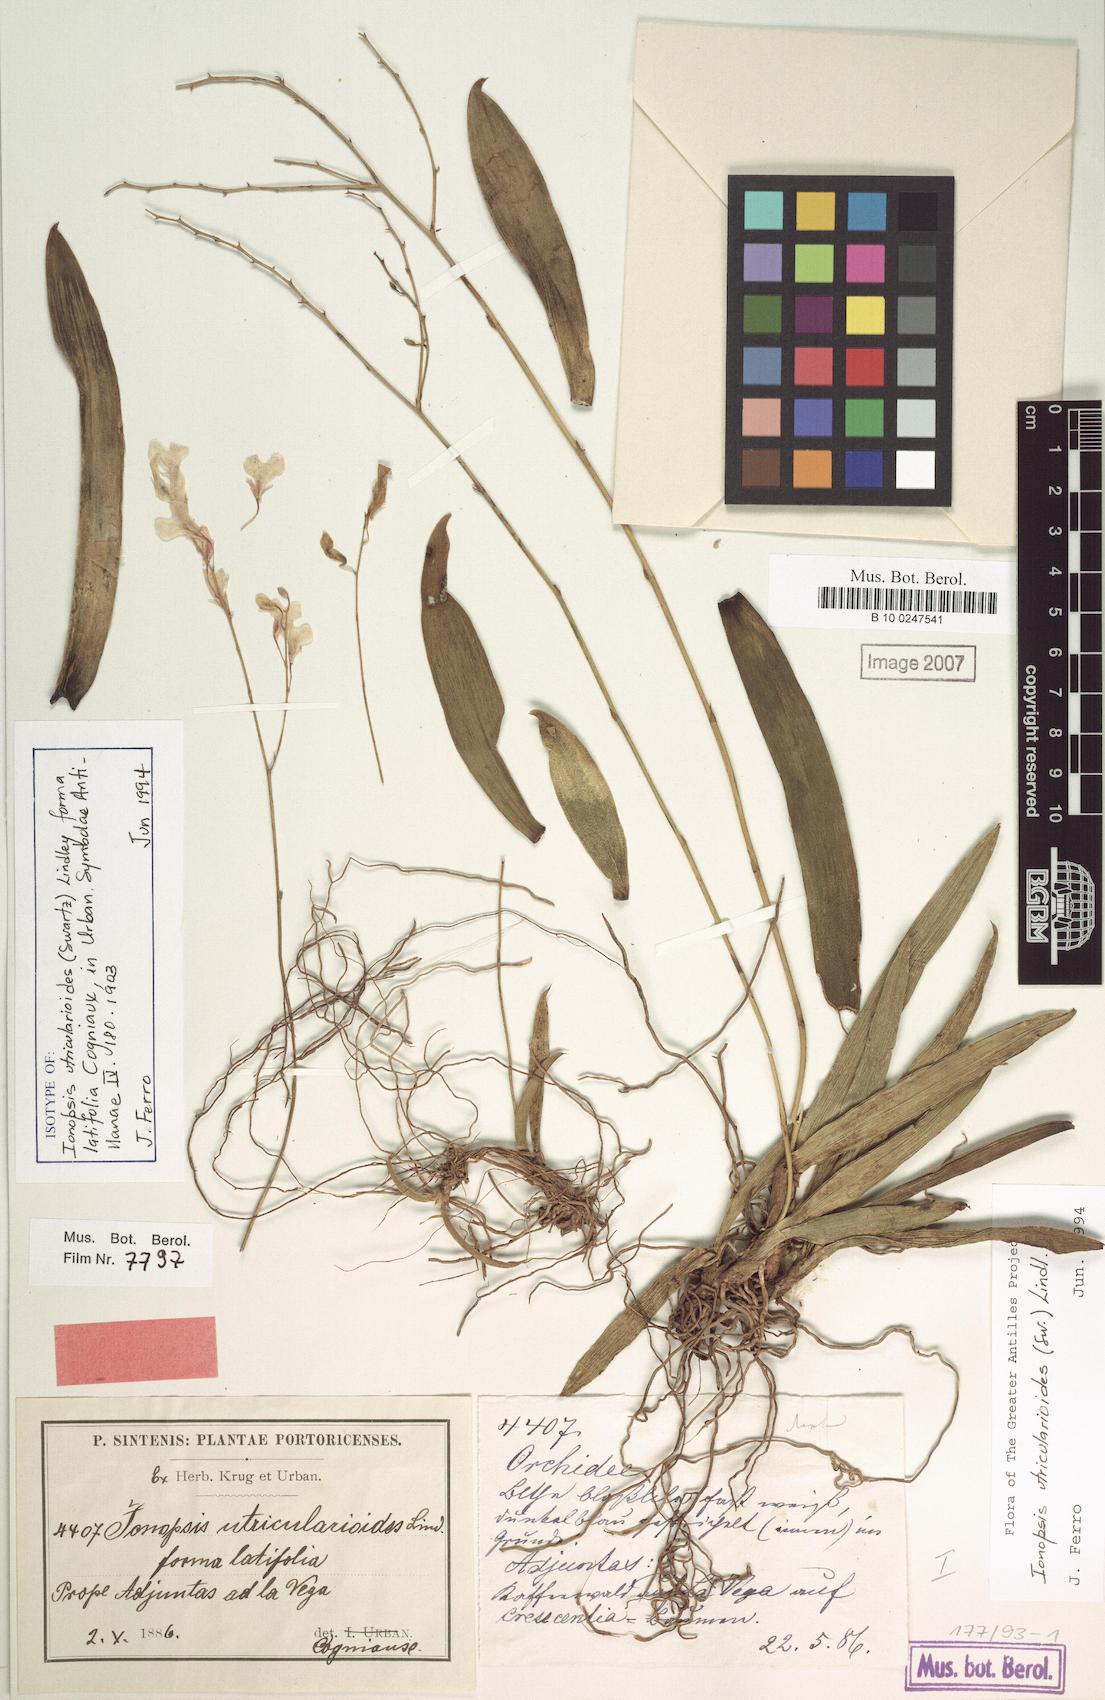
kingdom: Plantae
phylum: Tracheophyta
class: Liliopsida
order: Asparagales
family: Orchidaceae
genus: Ionopsis
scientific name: Ionopsis utricularioides
